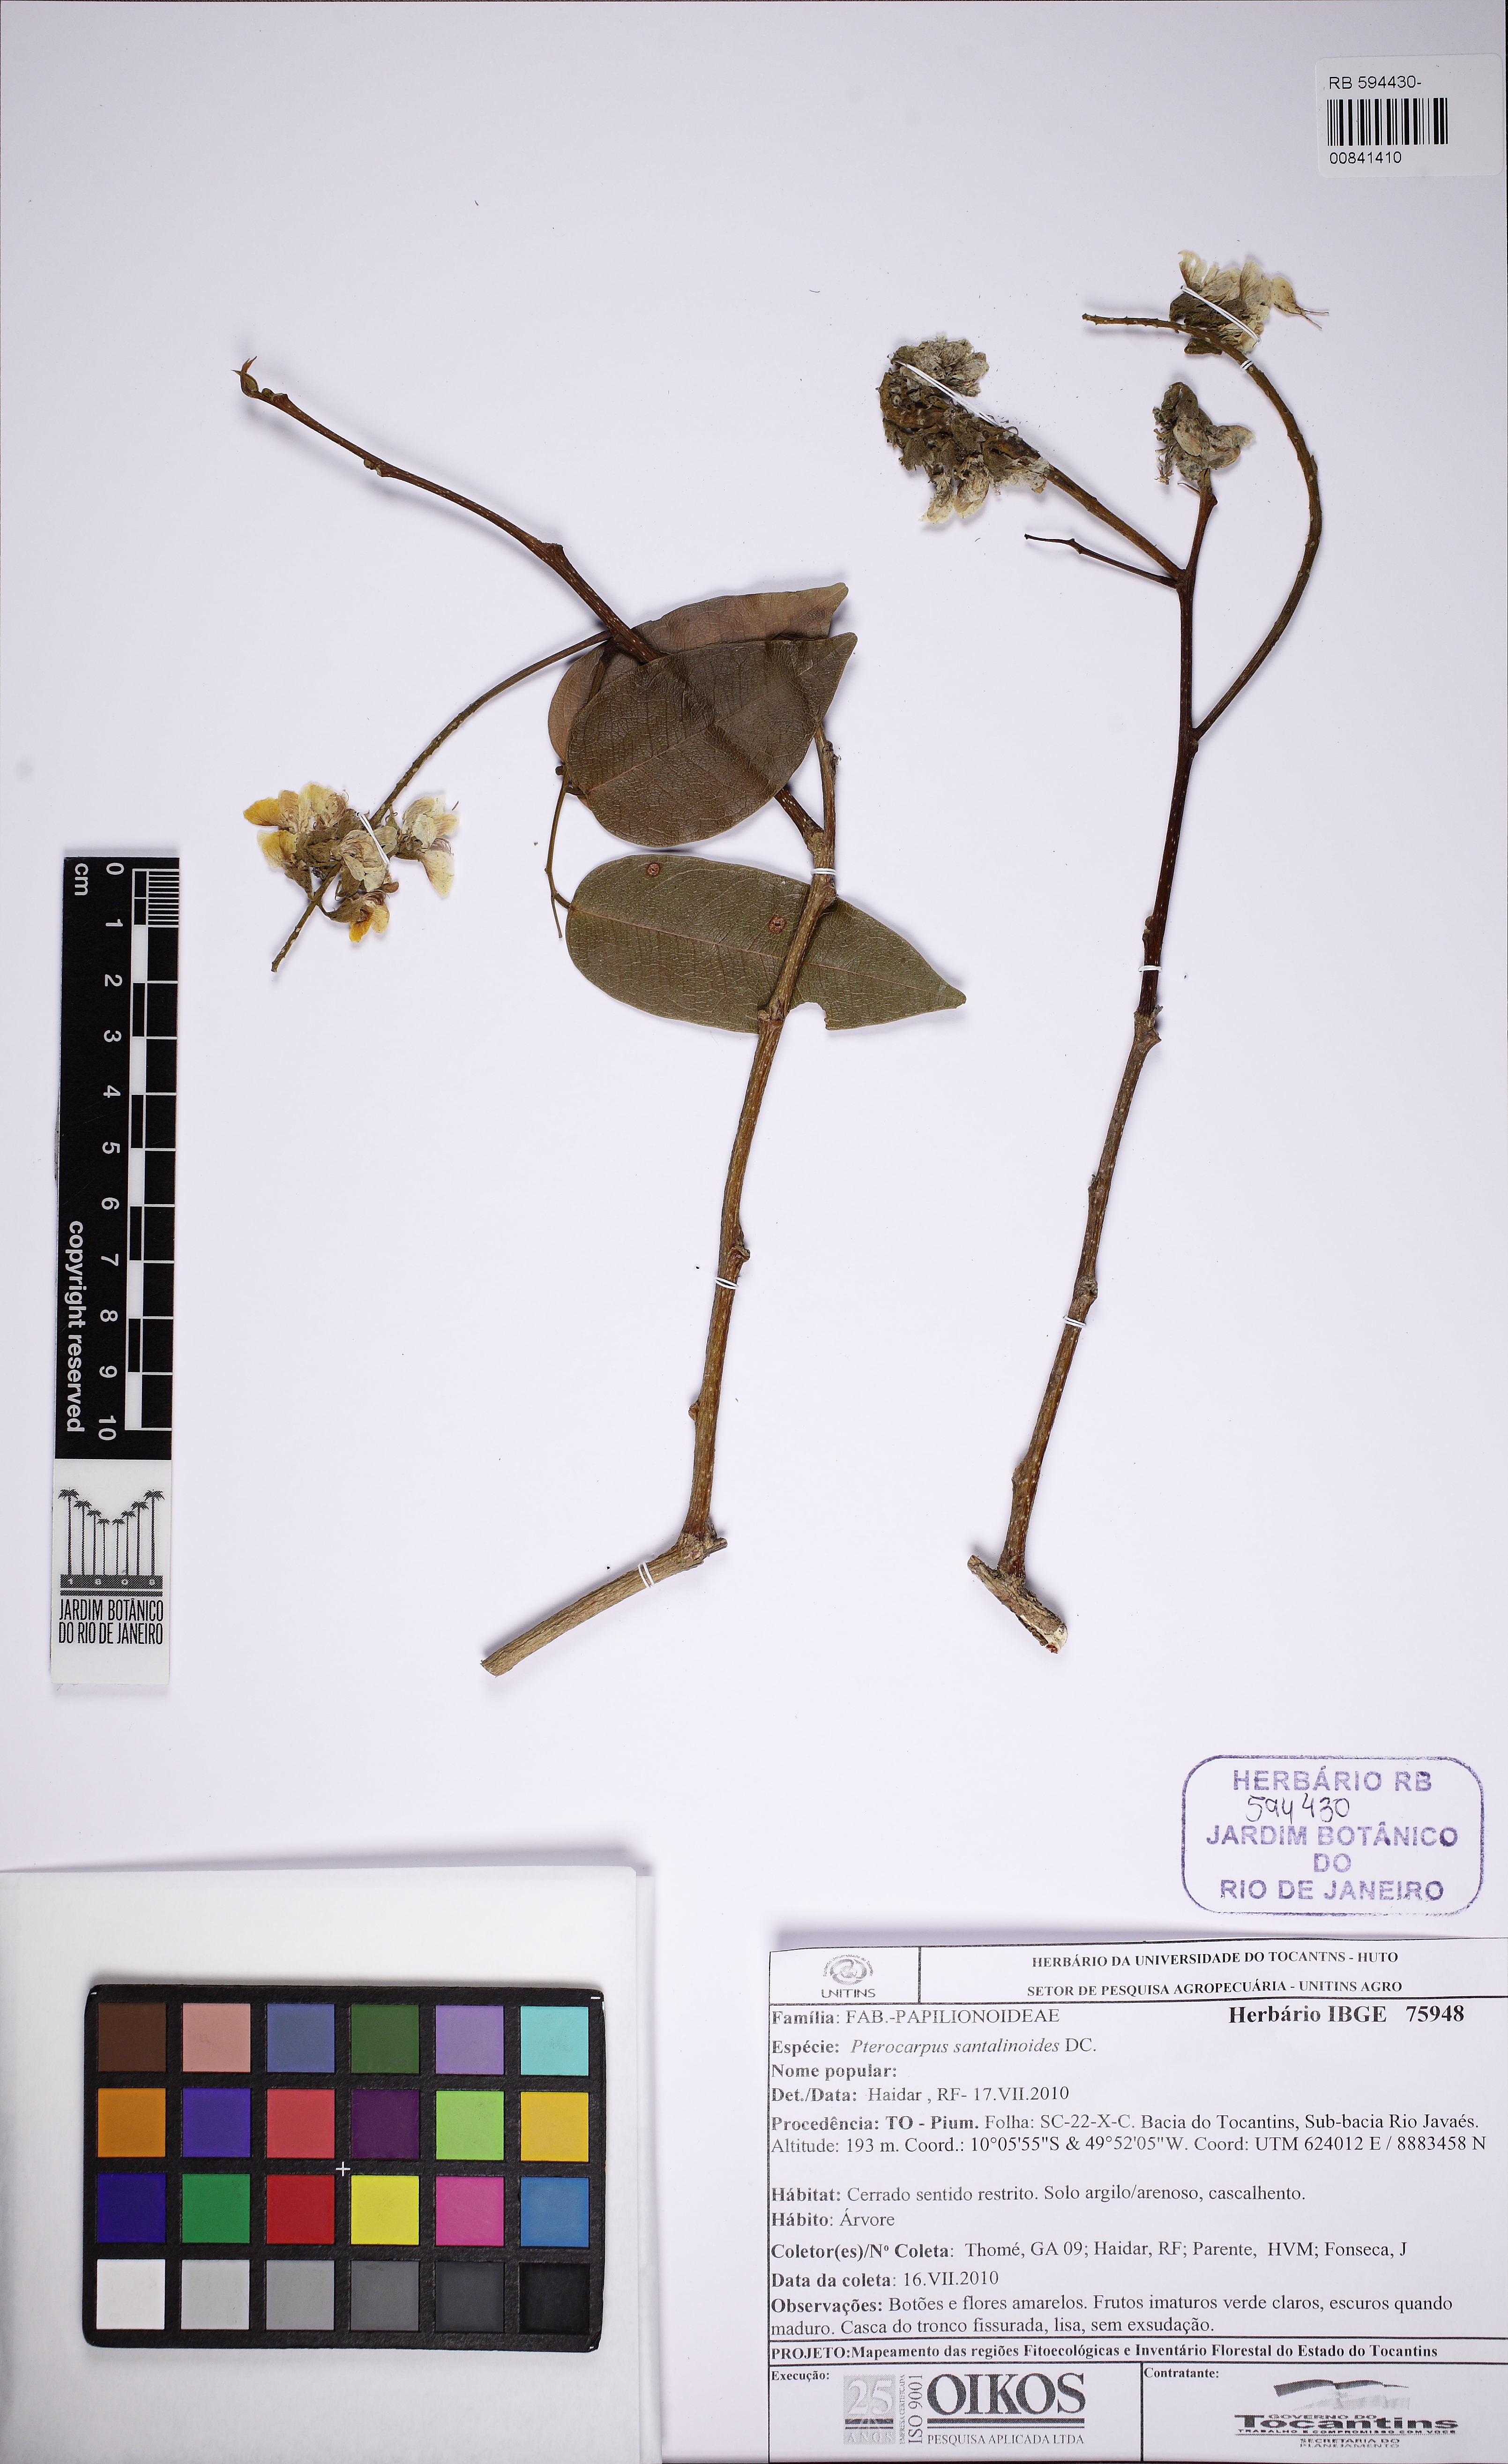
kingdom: Plantae
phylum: Tracheophyta
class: Magnoliopsida
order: Fabales
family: Fabaceae
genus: Pterocarpus
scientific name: Pterocarpus santalinoides
